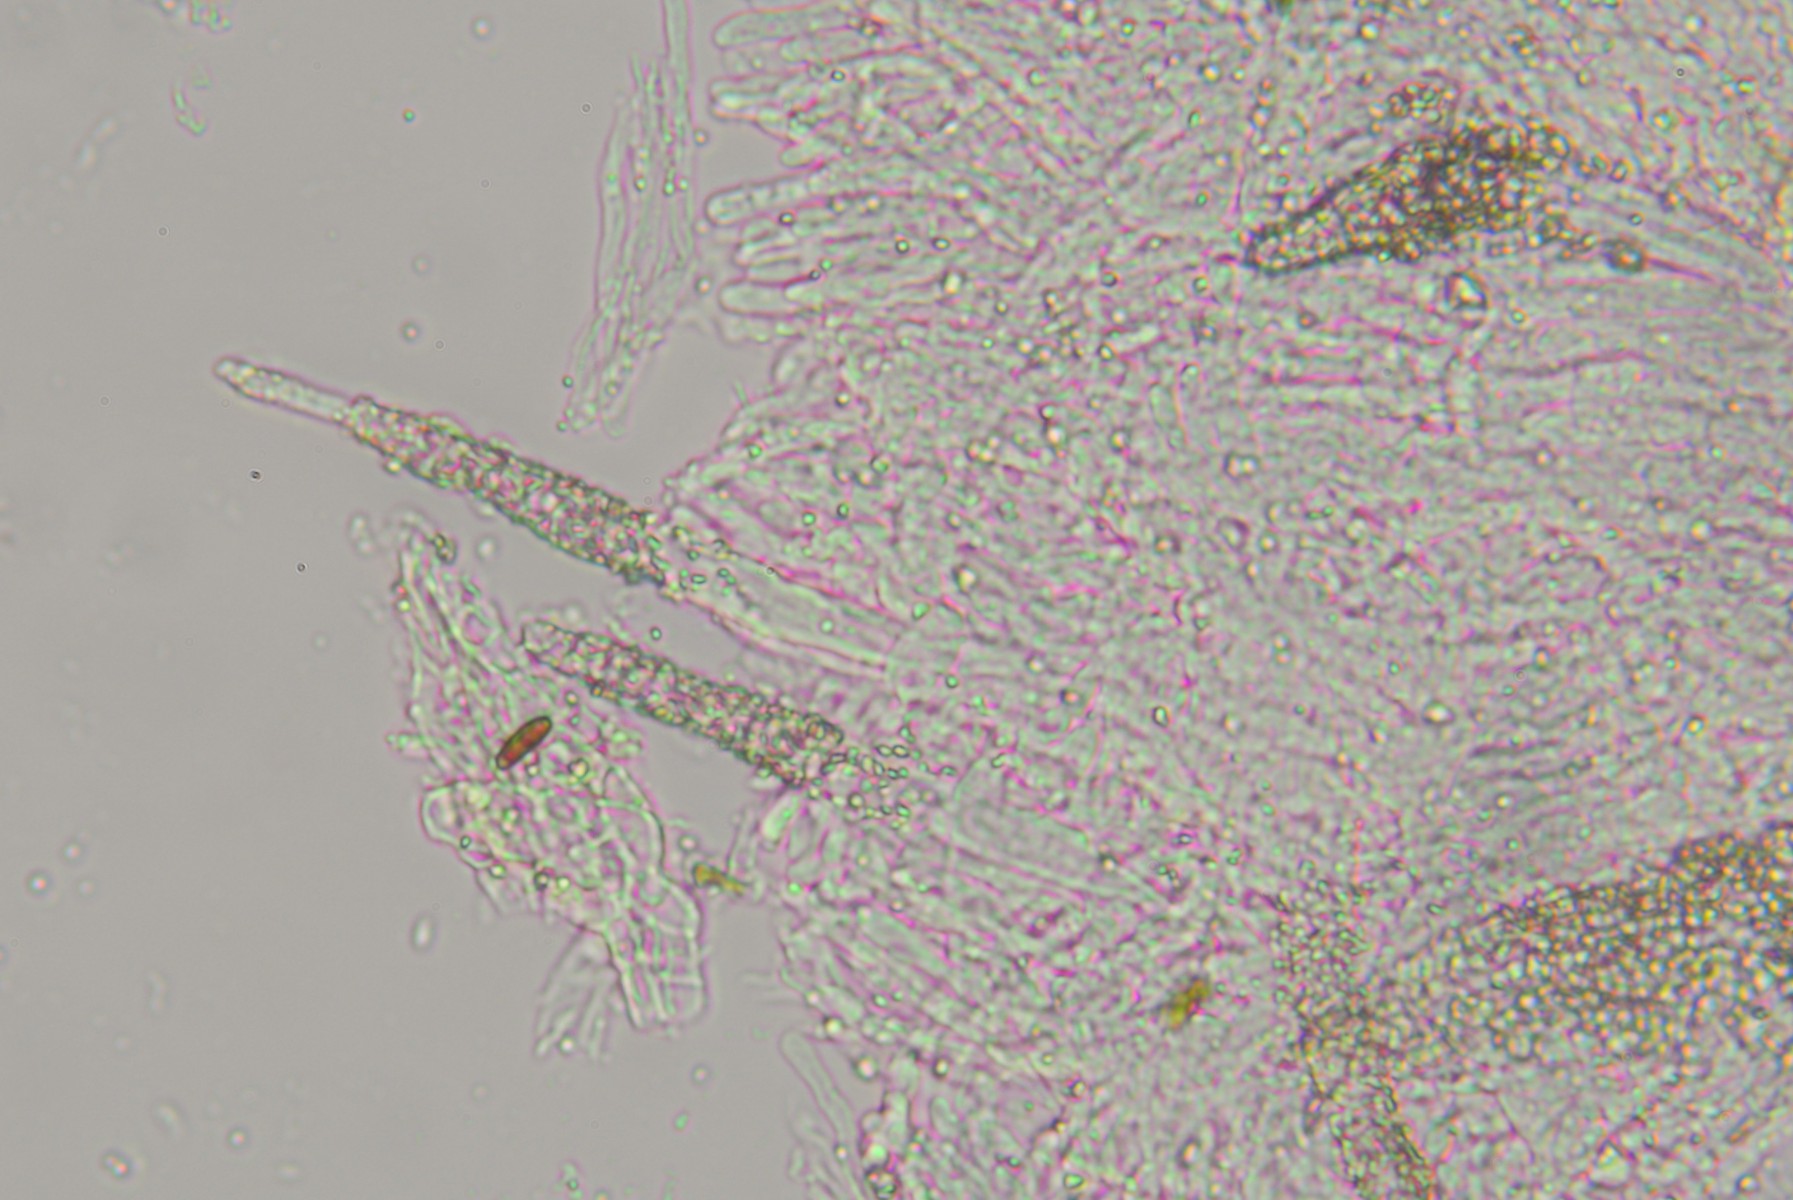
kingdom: Fungi
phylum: Basidiomycota
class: Agaricomycetes
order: Polyporales
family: Phanerochaetaceae
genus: Phanerochaete
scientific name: Phanerochaete laevis
